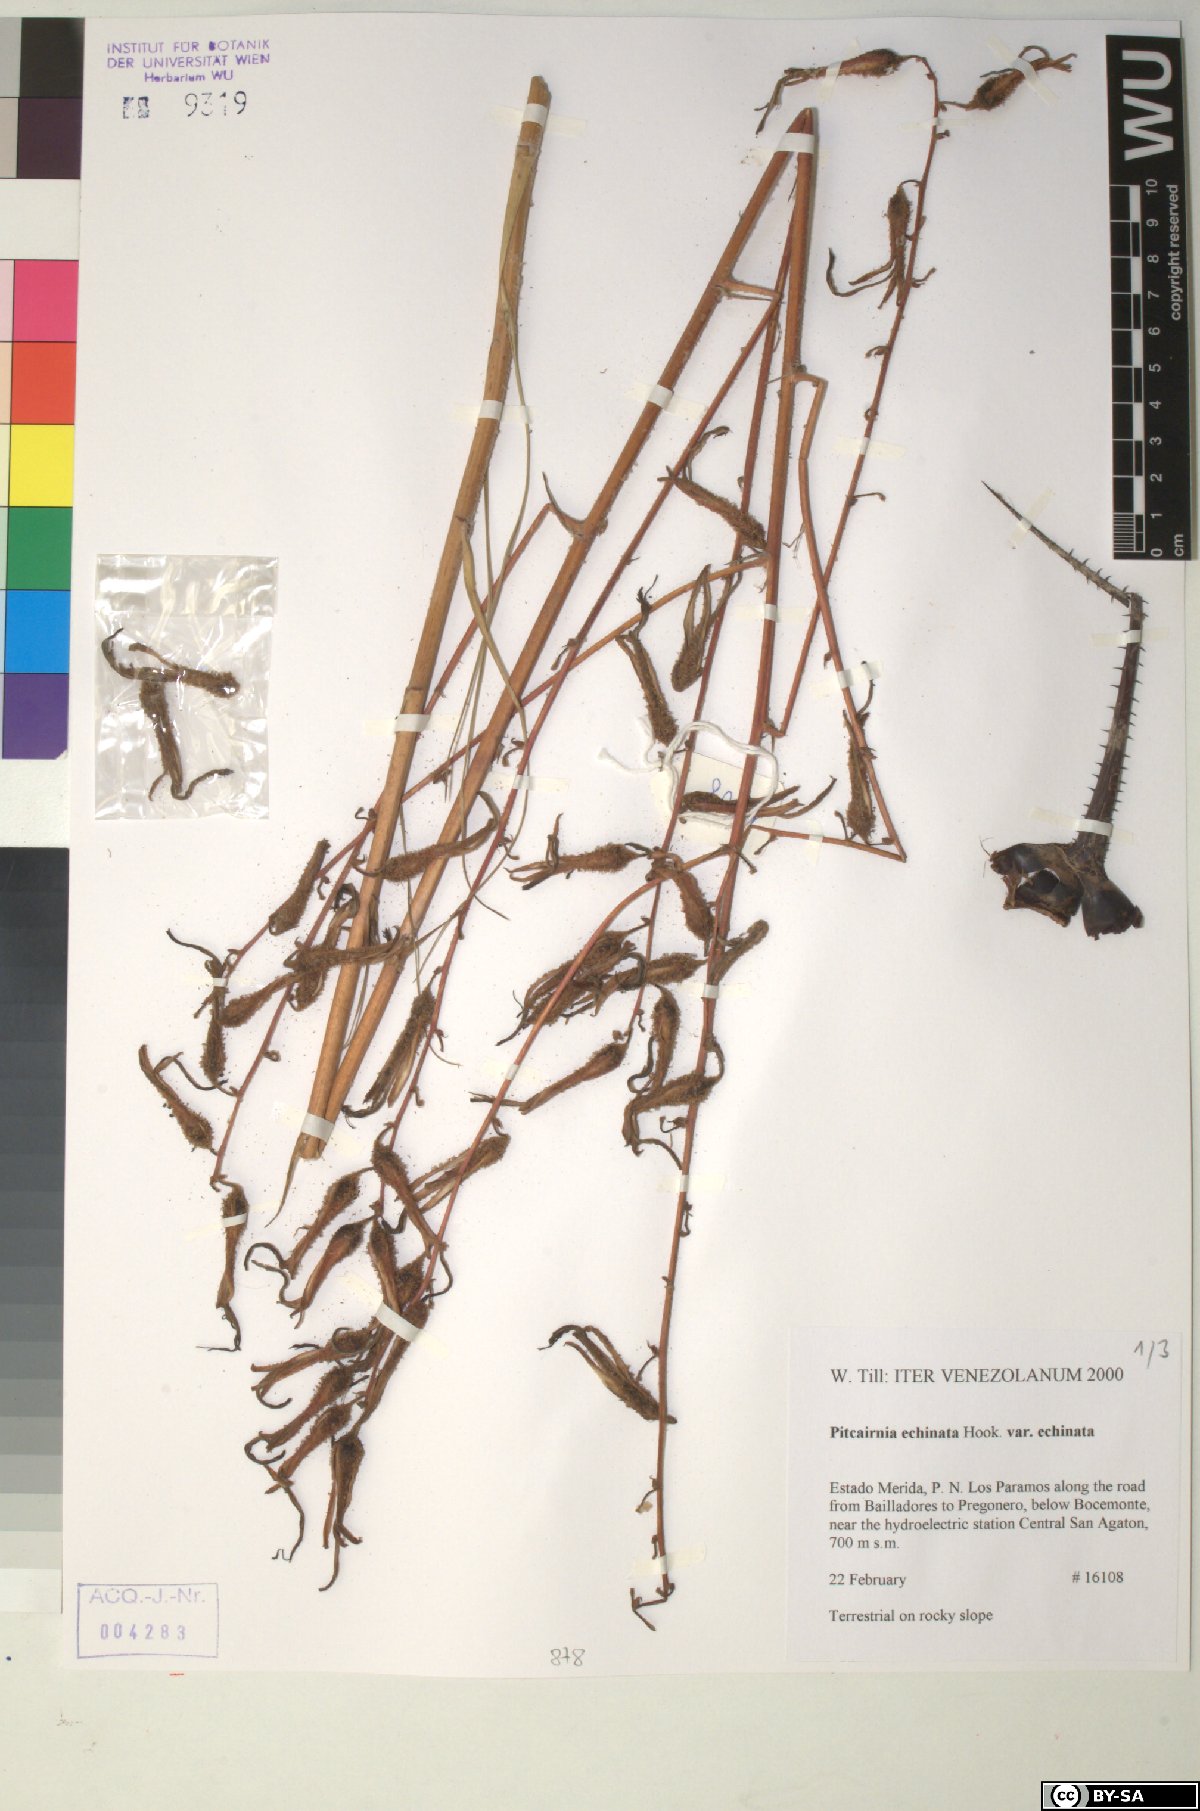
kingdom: Plantae
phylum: Tracheophyta
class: Liliopsida
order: Poales
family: Bromeliaceae
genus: Pitcairnia
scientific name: Pitcairnia echinata
